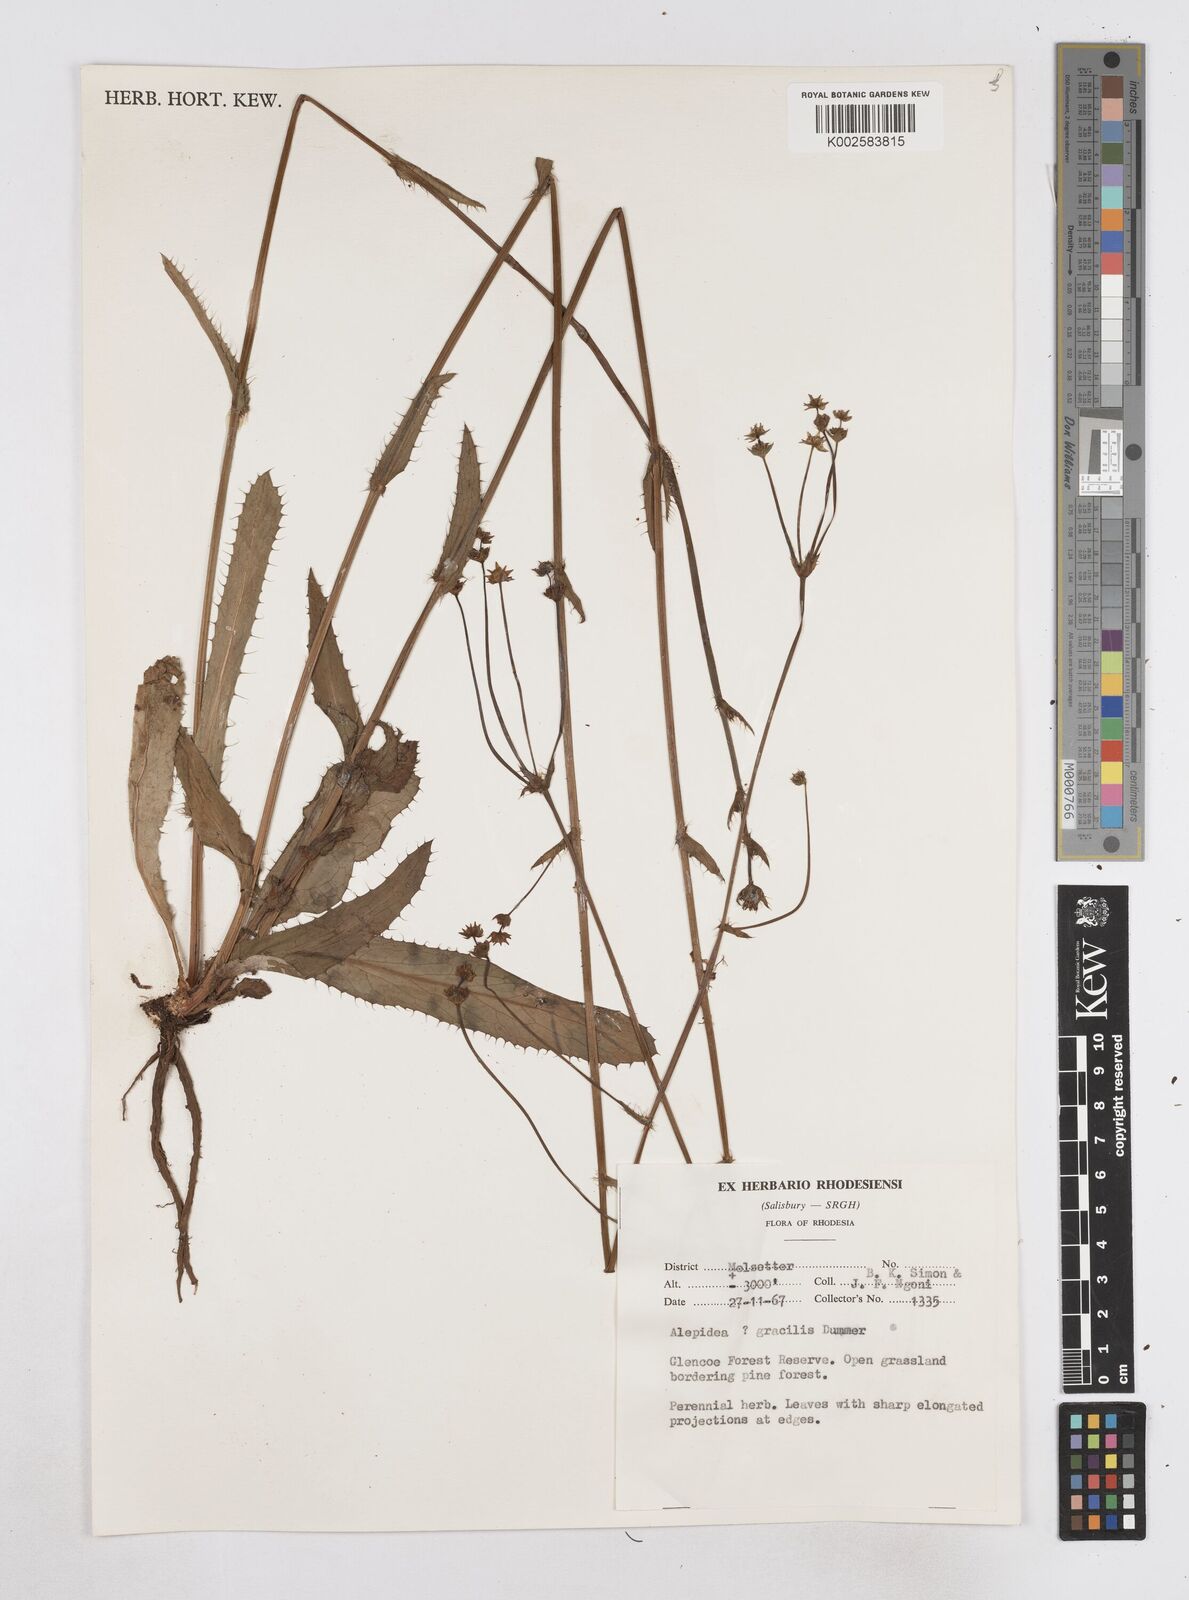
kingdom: Plantae
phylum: Tracheophyta
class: Magnoliopsida
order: Apiales
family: Apiaceae
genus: Alepidea
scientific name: Alepidea peduncularis
